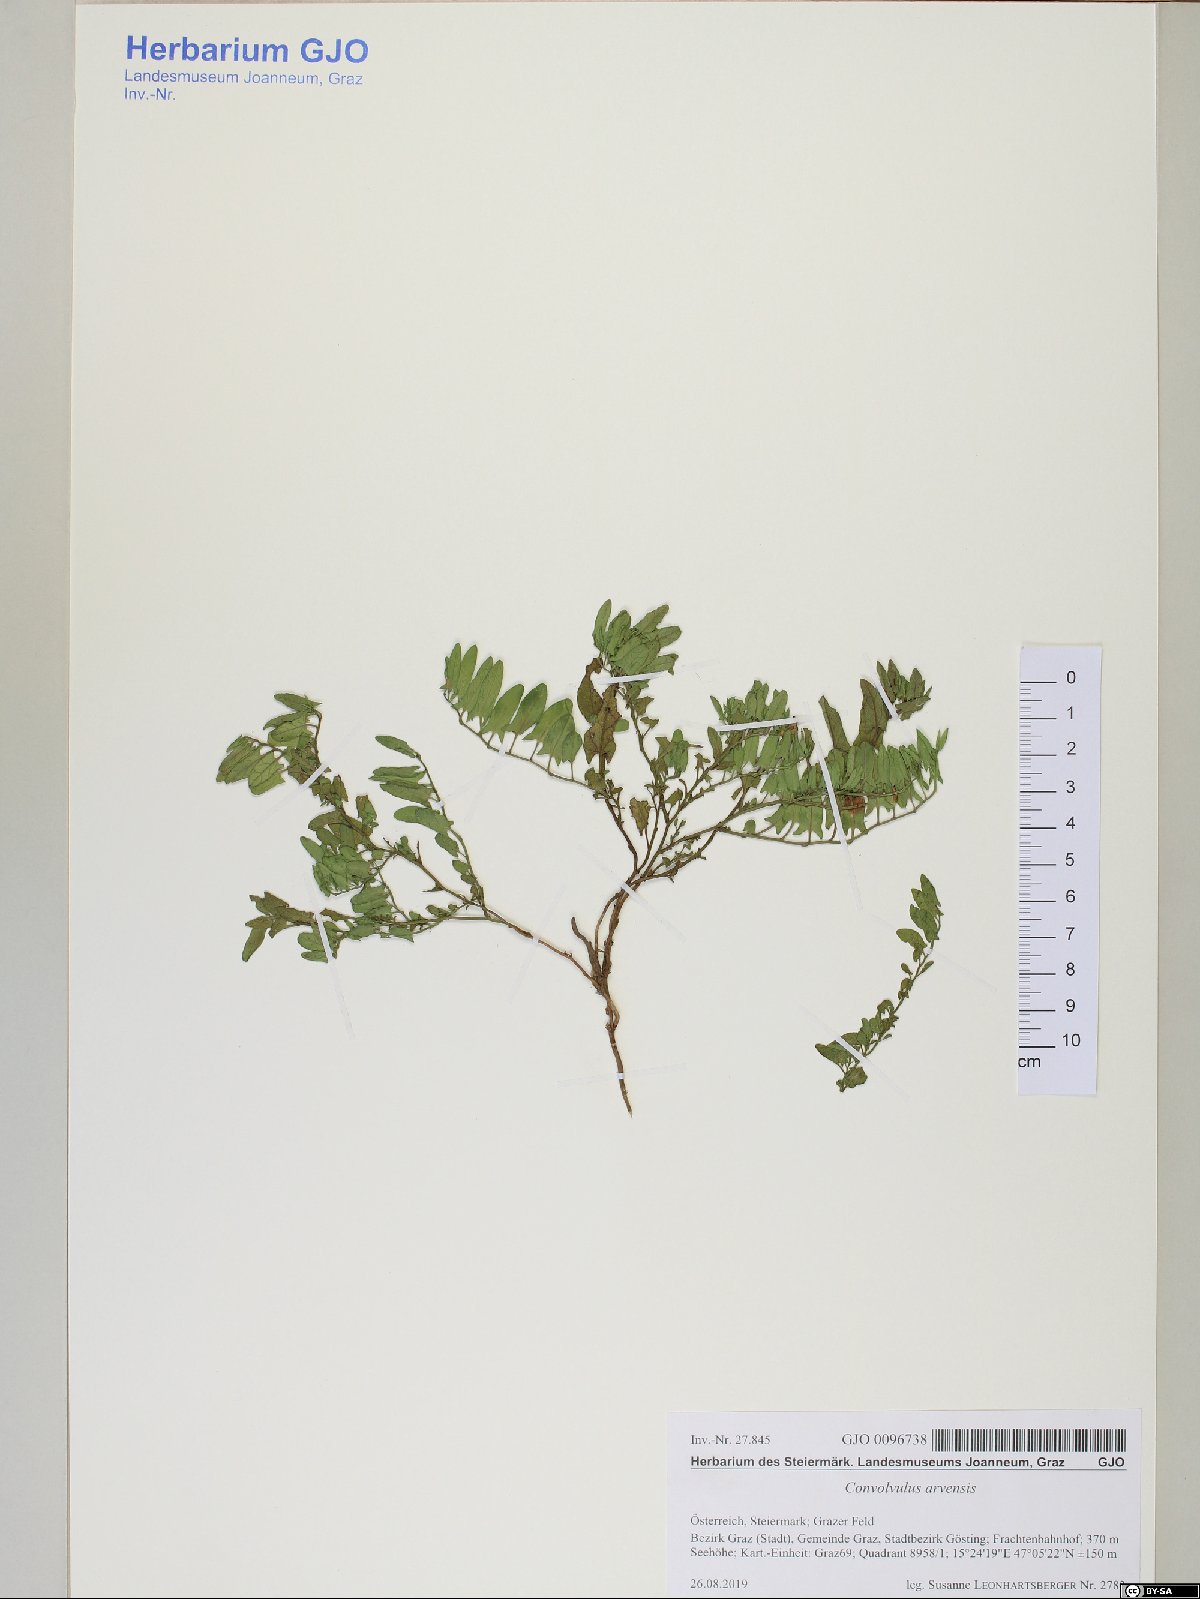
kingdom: Plantae
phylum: Tracheophyta
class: Magnoliopsida
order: Solanales
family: Convolvulaceae
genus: Convolvulus
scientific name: Convolvulus arvensis
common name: Field bindweed
